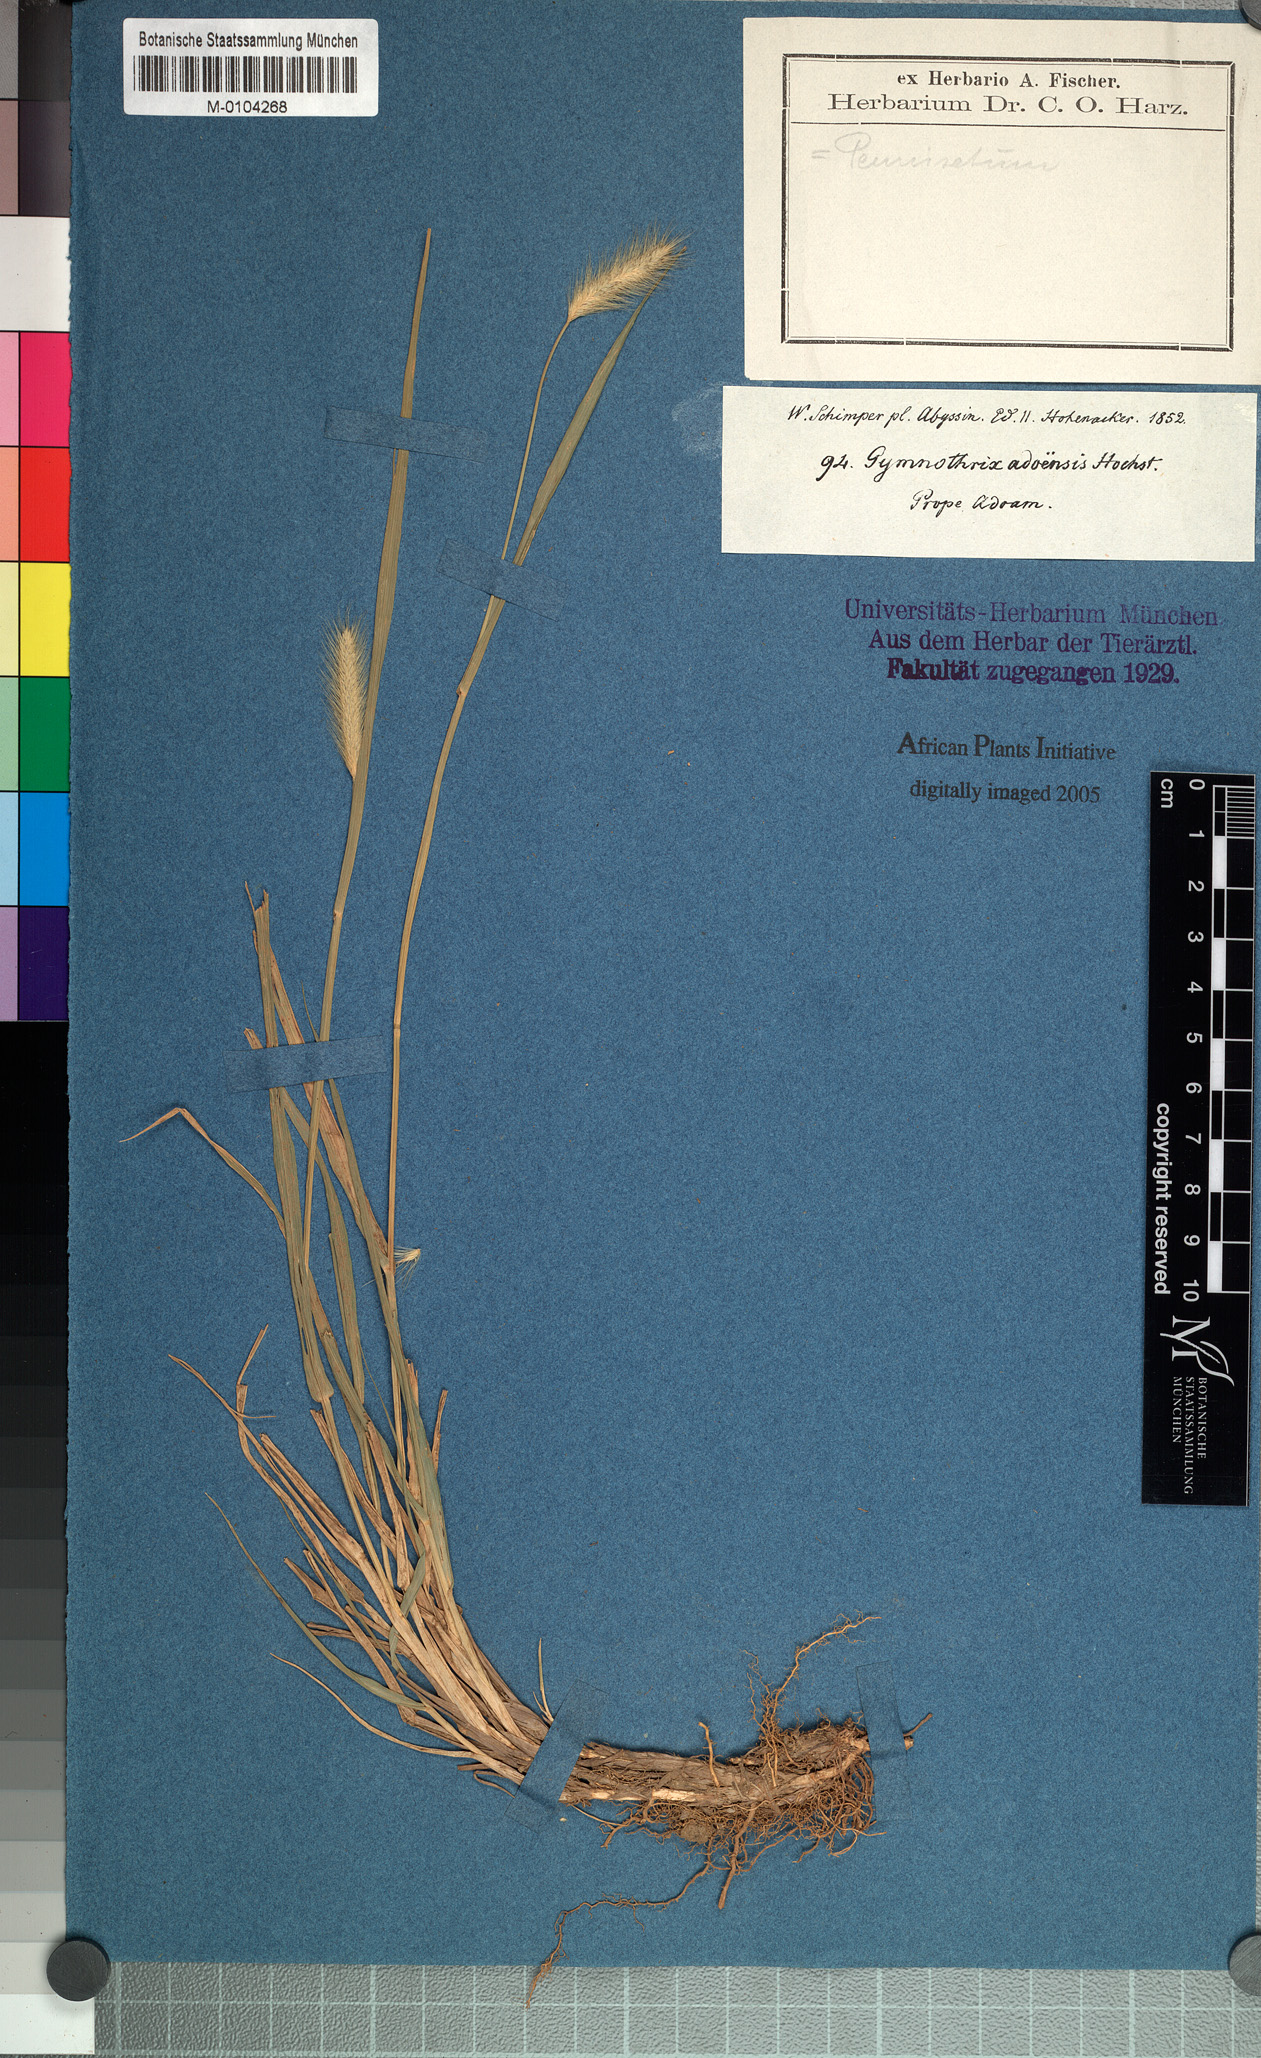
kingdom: Plantae
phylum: Tracheophyta
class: Liliopsida
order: Poales
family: Poaceae
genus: Cenchrus
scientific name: Cenchrus geniculatus
